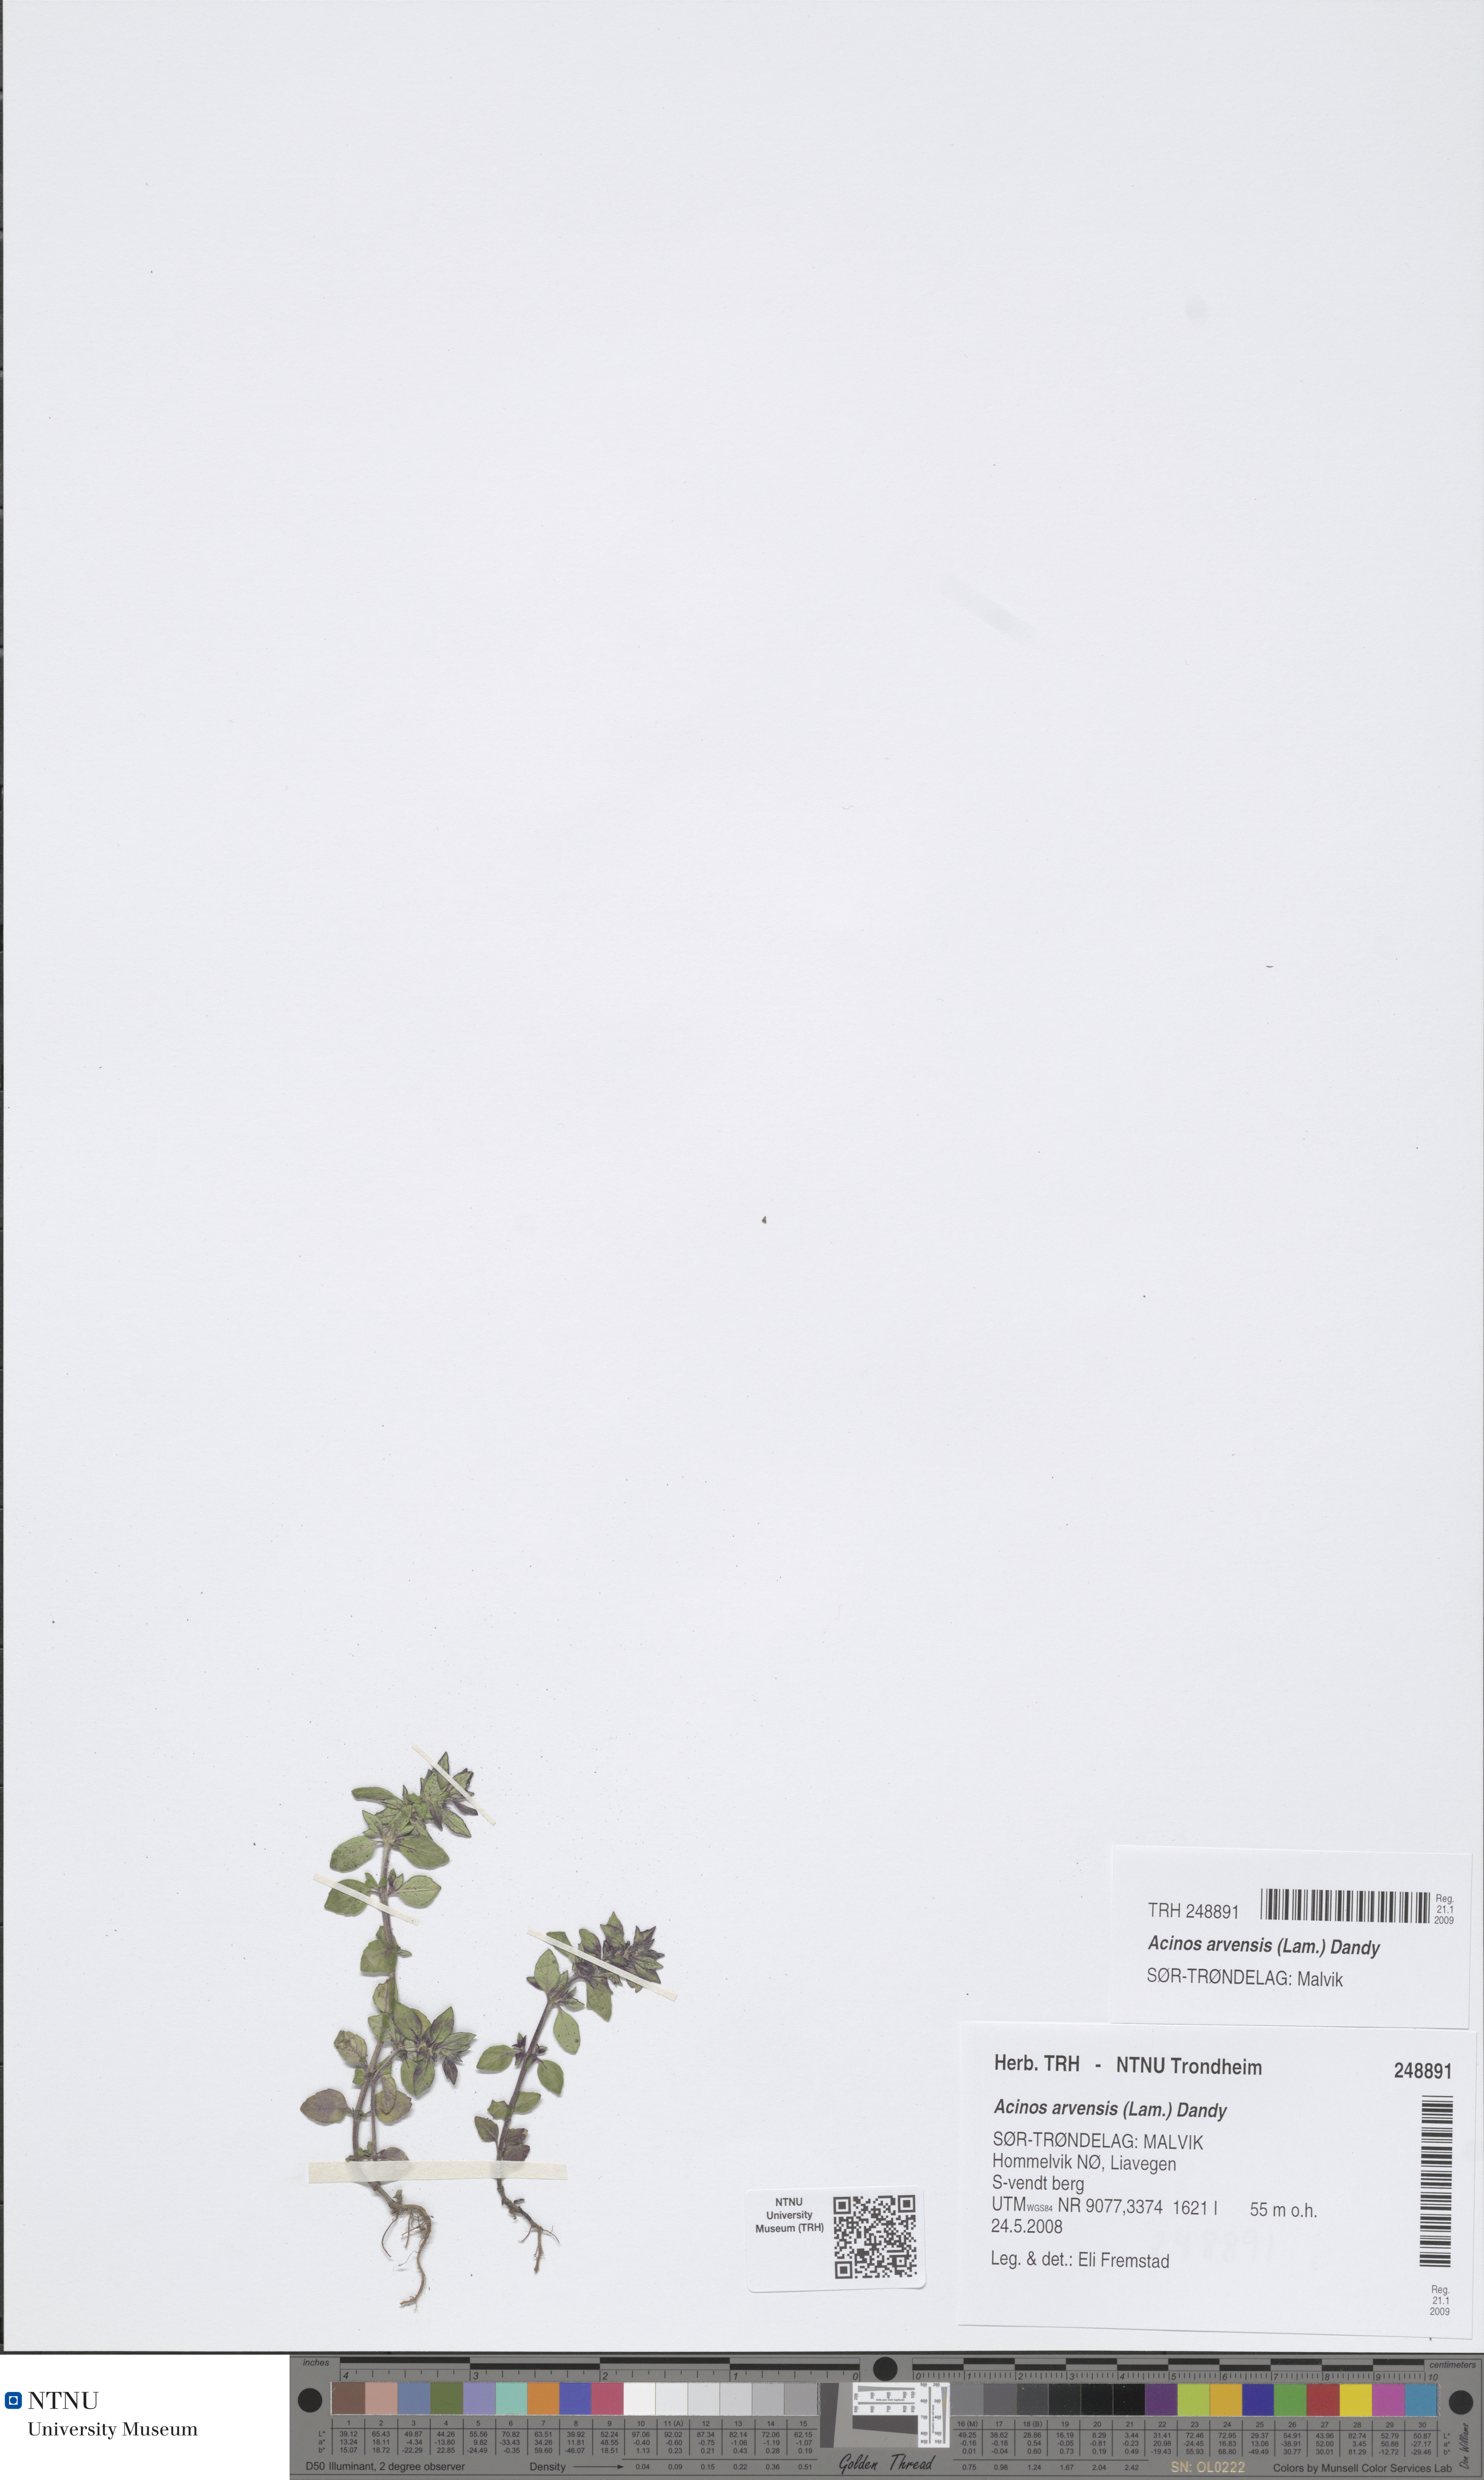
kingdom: Plantae
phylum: Tracheophyta
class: Magnoliopsida
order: Lamiales
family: Lamiaceae
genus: Clinopodium
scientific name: Clinopodium acinos
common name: Basil thyme
